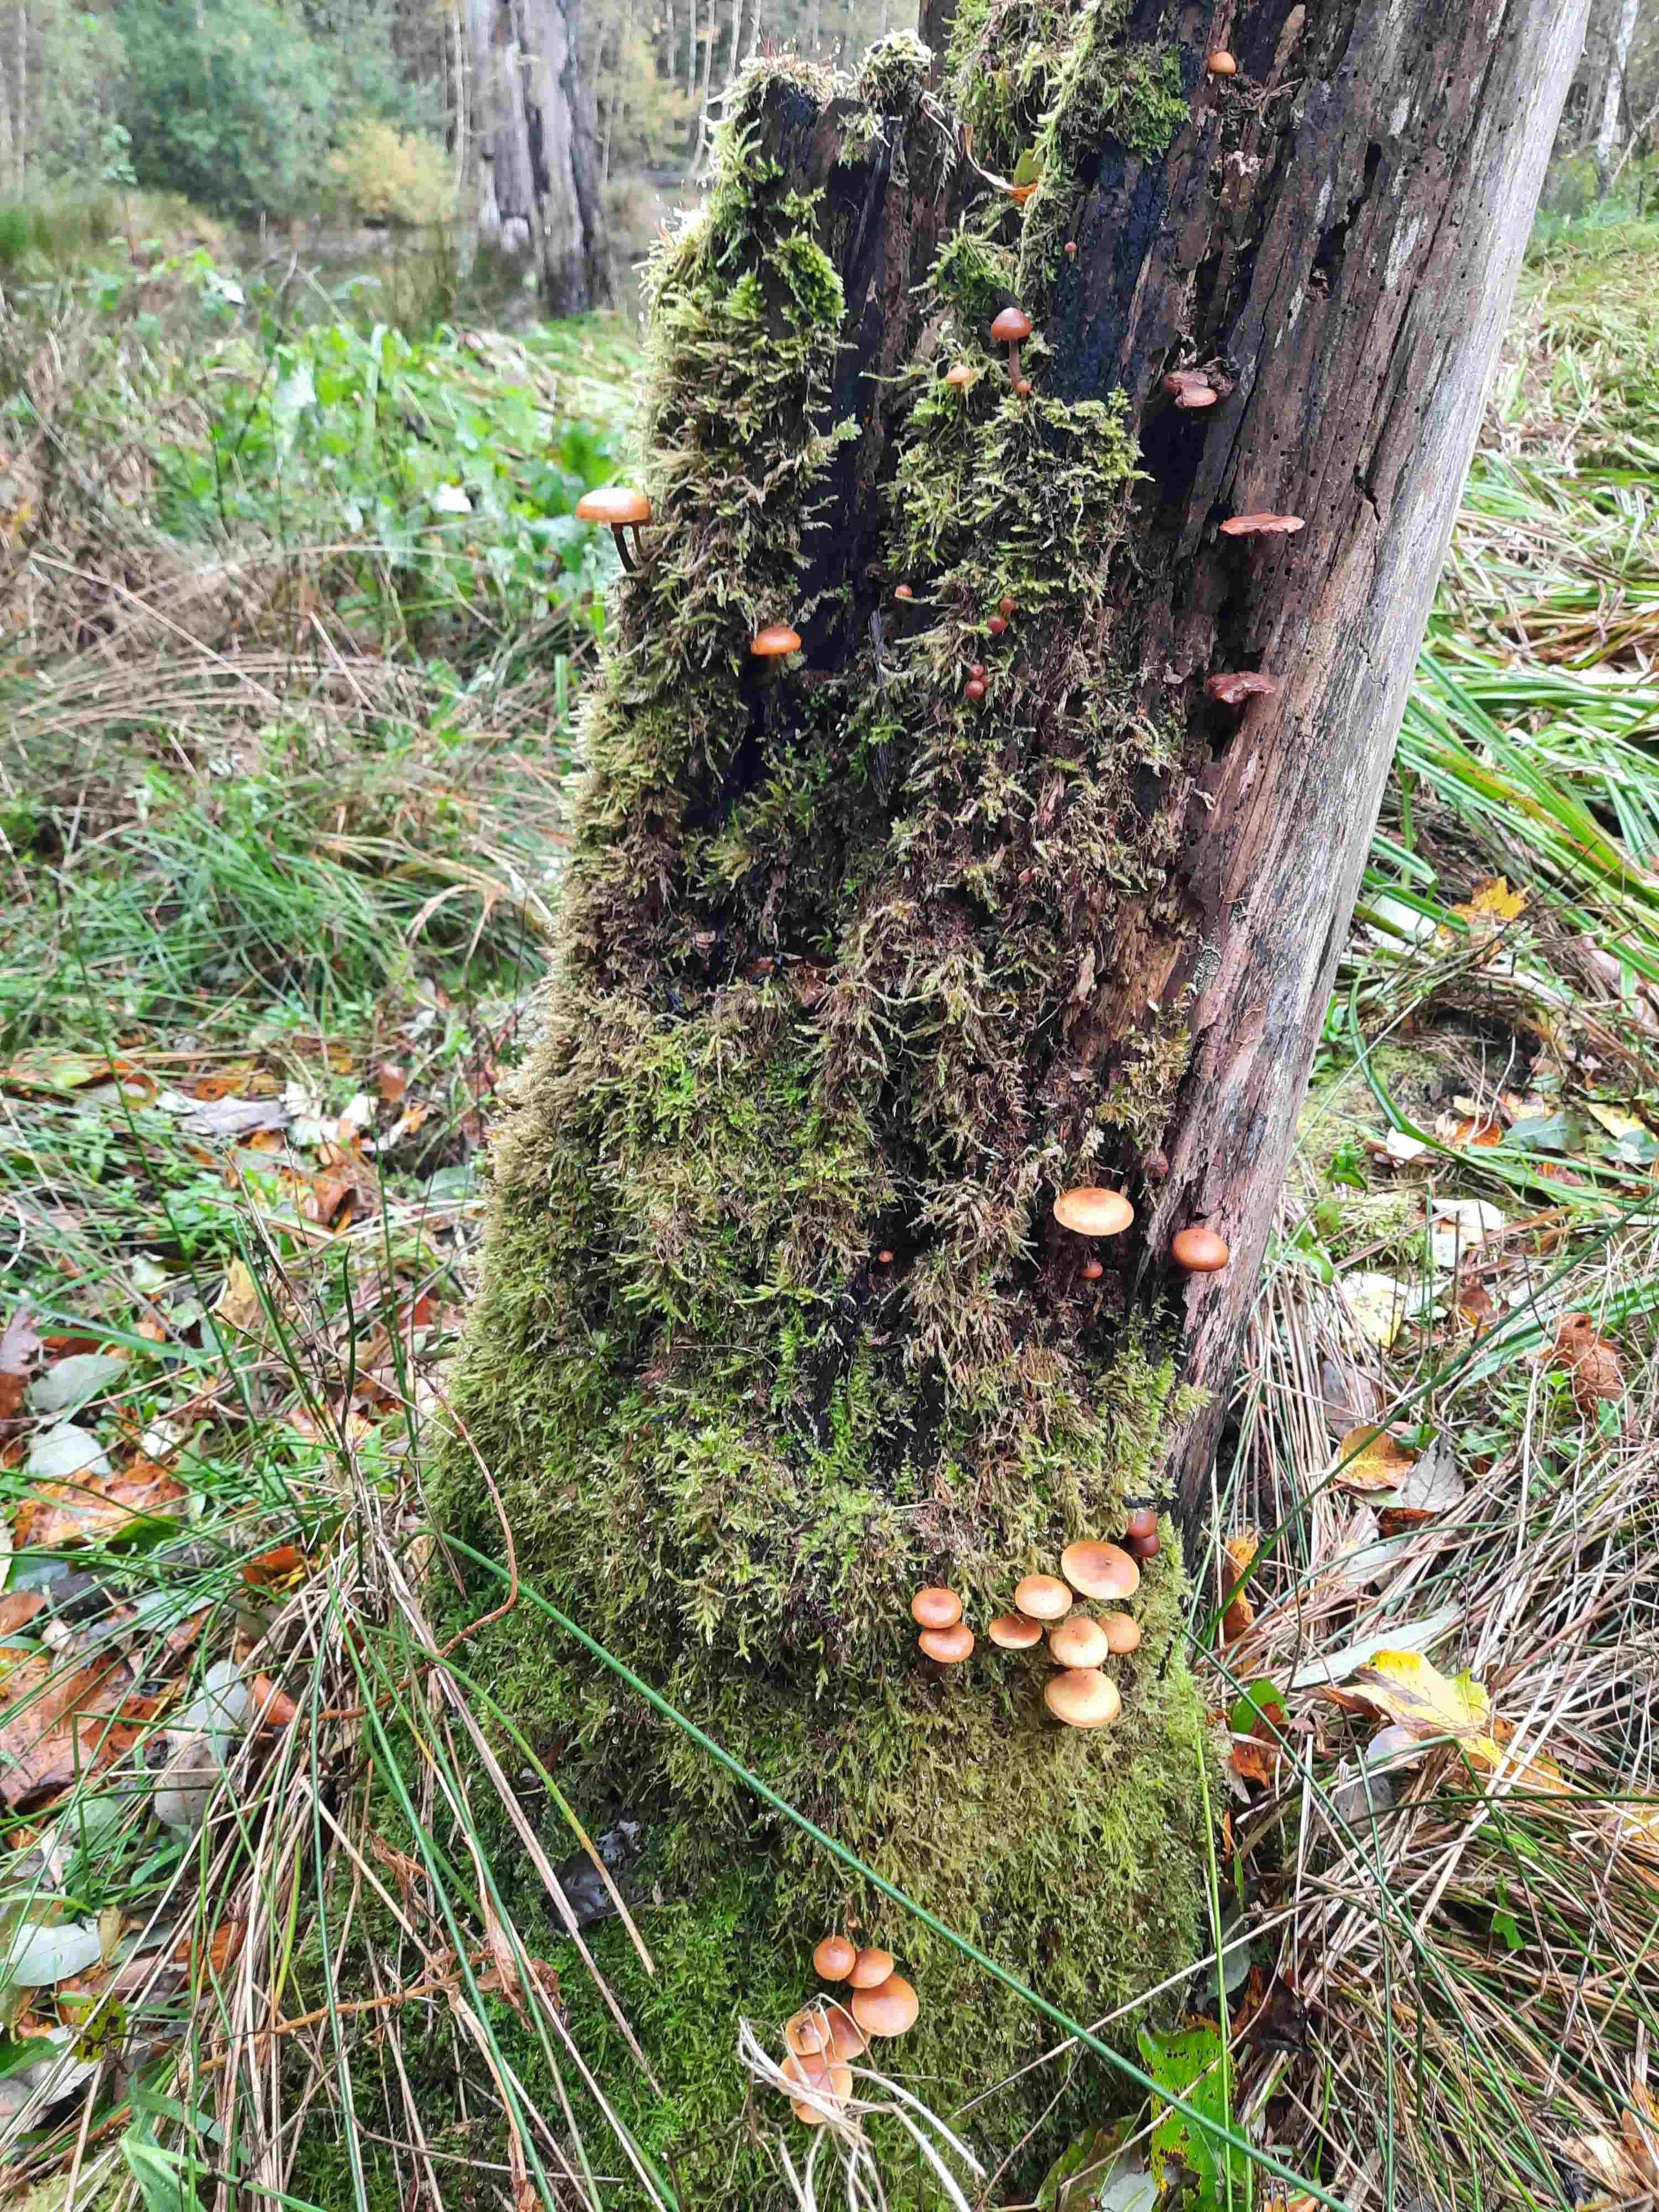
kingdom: Fungi
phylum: Basidiomycota
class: Agaricomycetes
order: Agaricales
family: Hymenogastraceae
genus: Galerina
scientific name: Galerina marginata
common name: randbæltet hjelmhat
